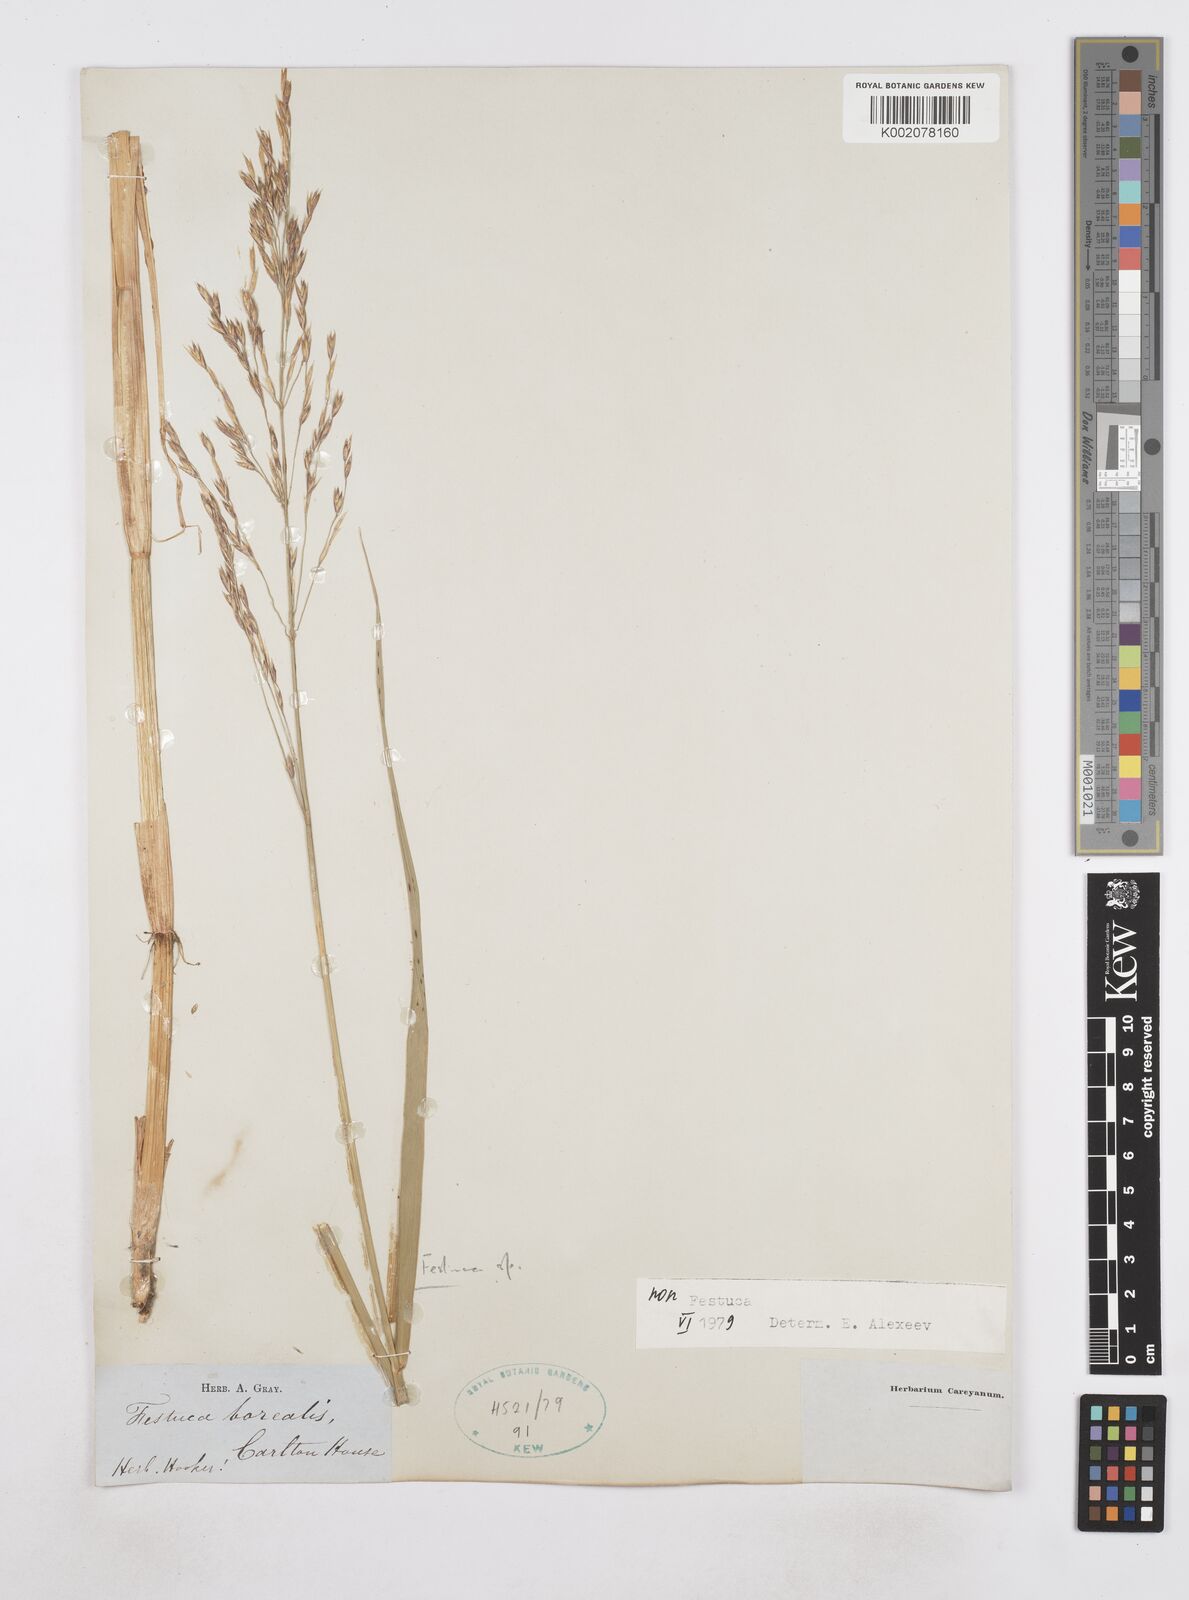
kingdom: Plantae
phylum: Tracheophyta
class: Liliopsida
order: Poales
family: Poaceae
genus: Poa
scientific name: Poa
